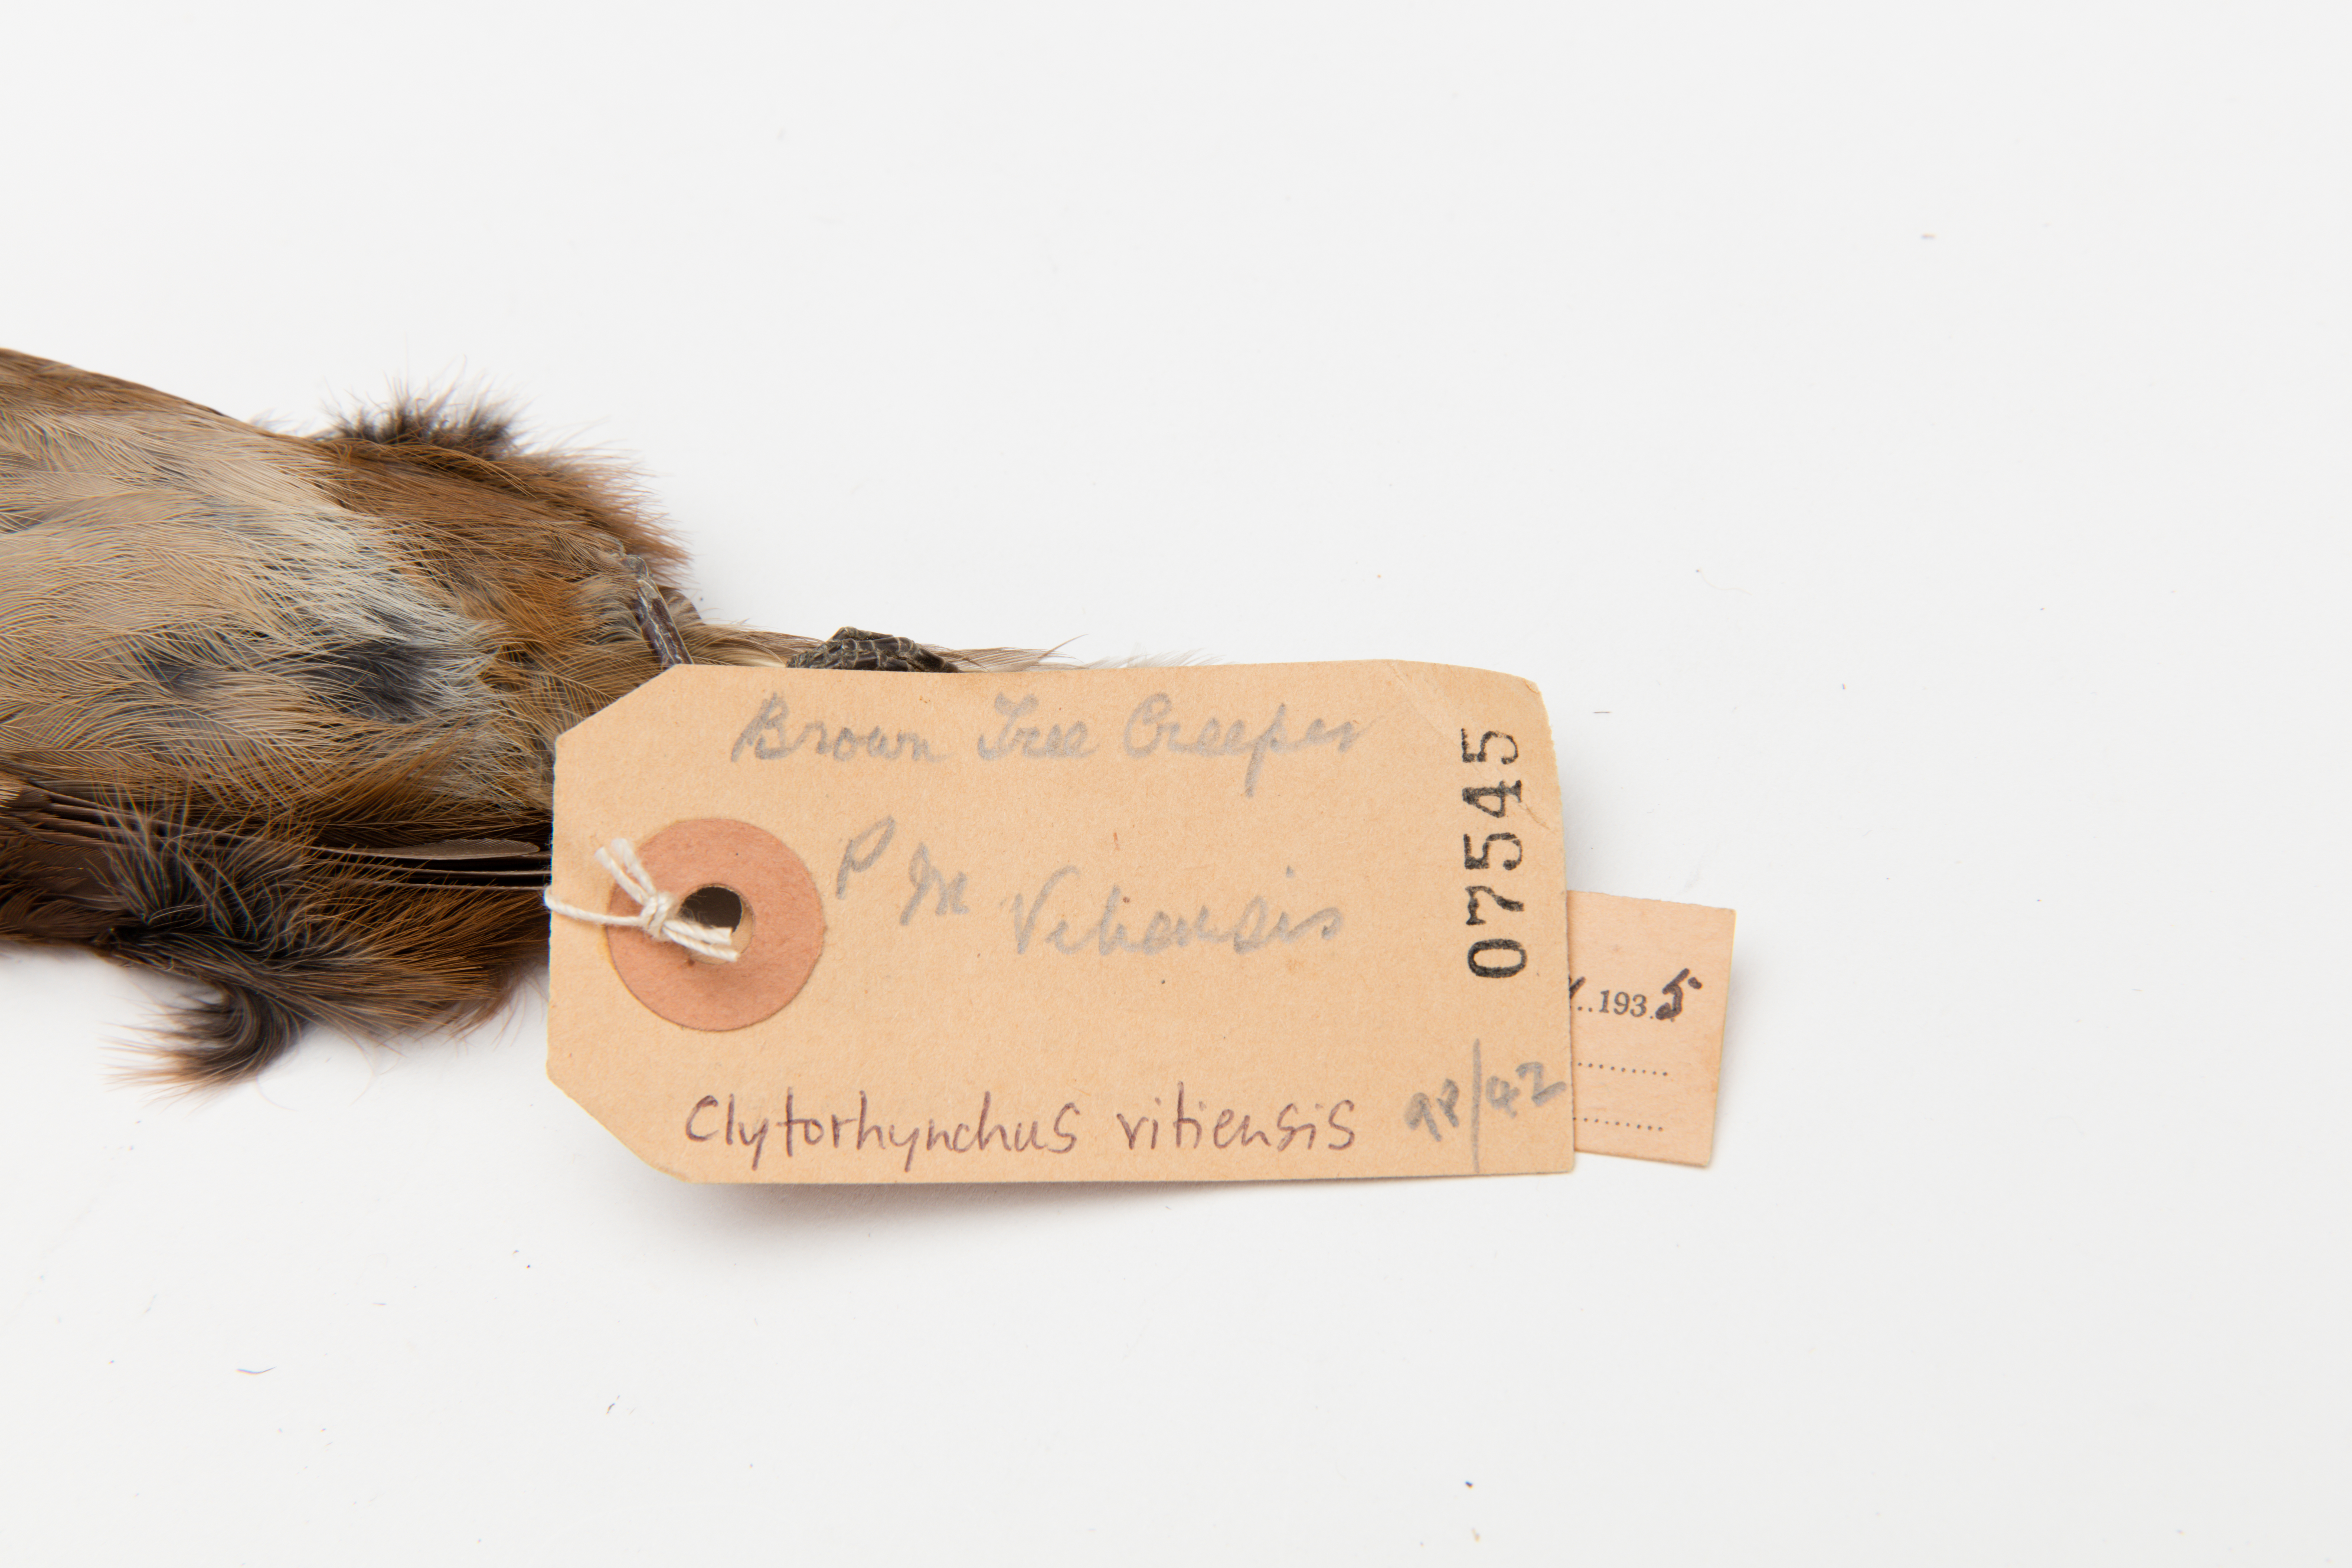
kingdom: Animalia
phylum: Chordata
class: Aves
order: Passeriformes
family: Monarchidae
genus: Clytorhynchus
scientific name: Clytorhynchus vitiensis
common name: Fiji shrikebill
